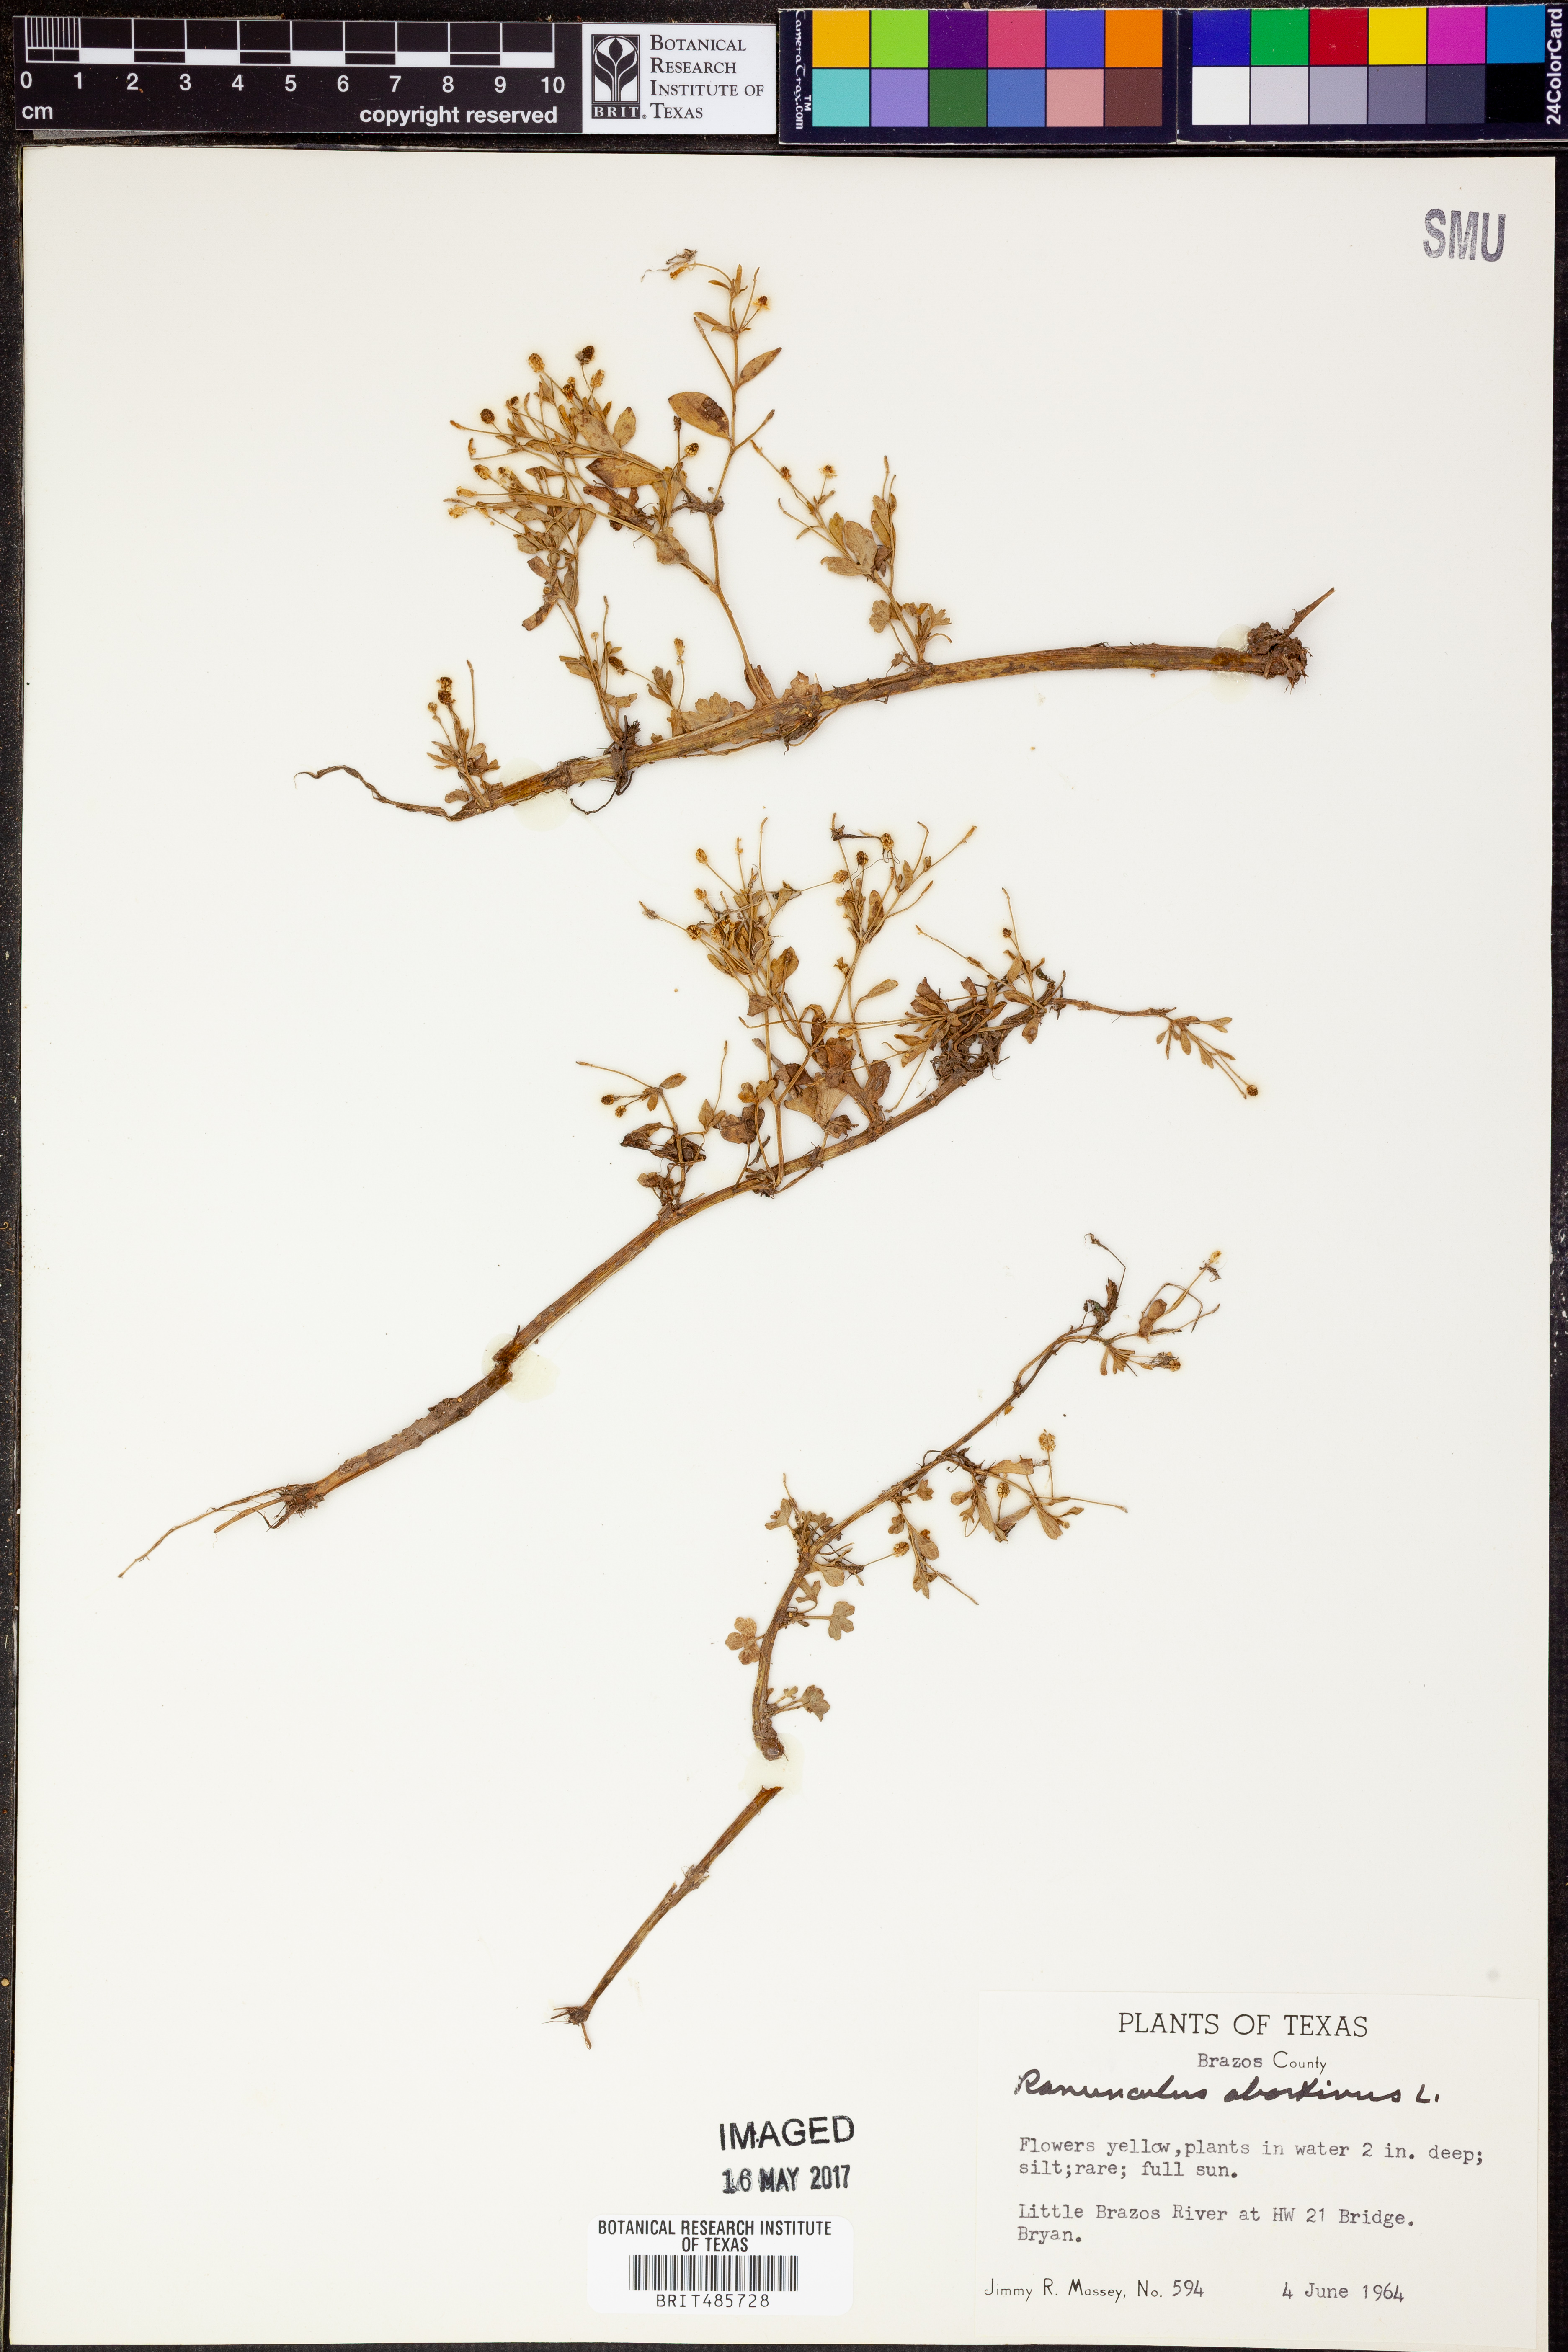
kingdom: Plantae
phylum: Tracheophyta
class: Magnoliopsida
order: Ranunculales
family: Ranunculaceae
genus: Ranunculus
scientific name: Ranunculus abortivus
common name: Early wood buttercup
